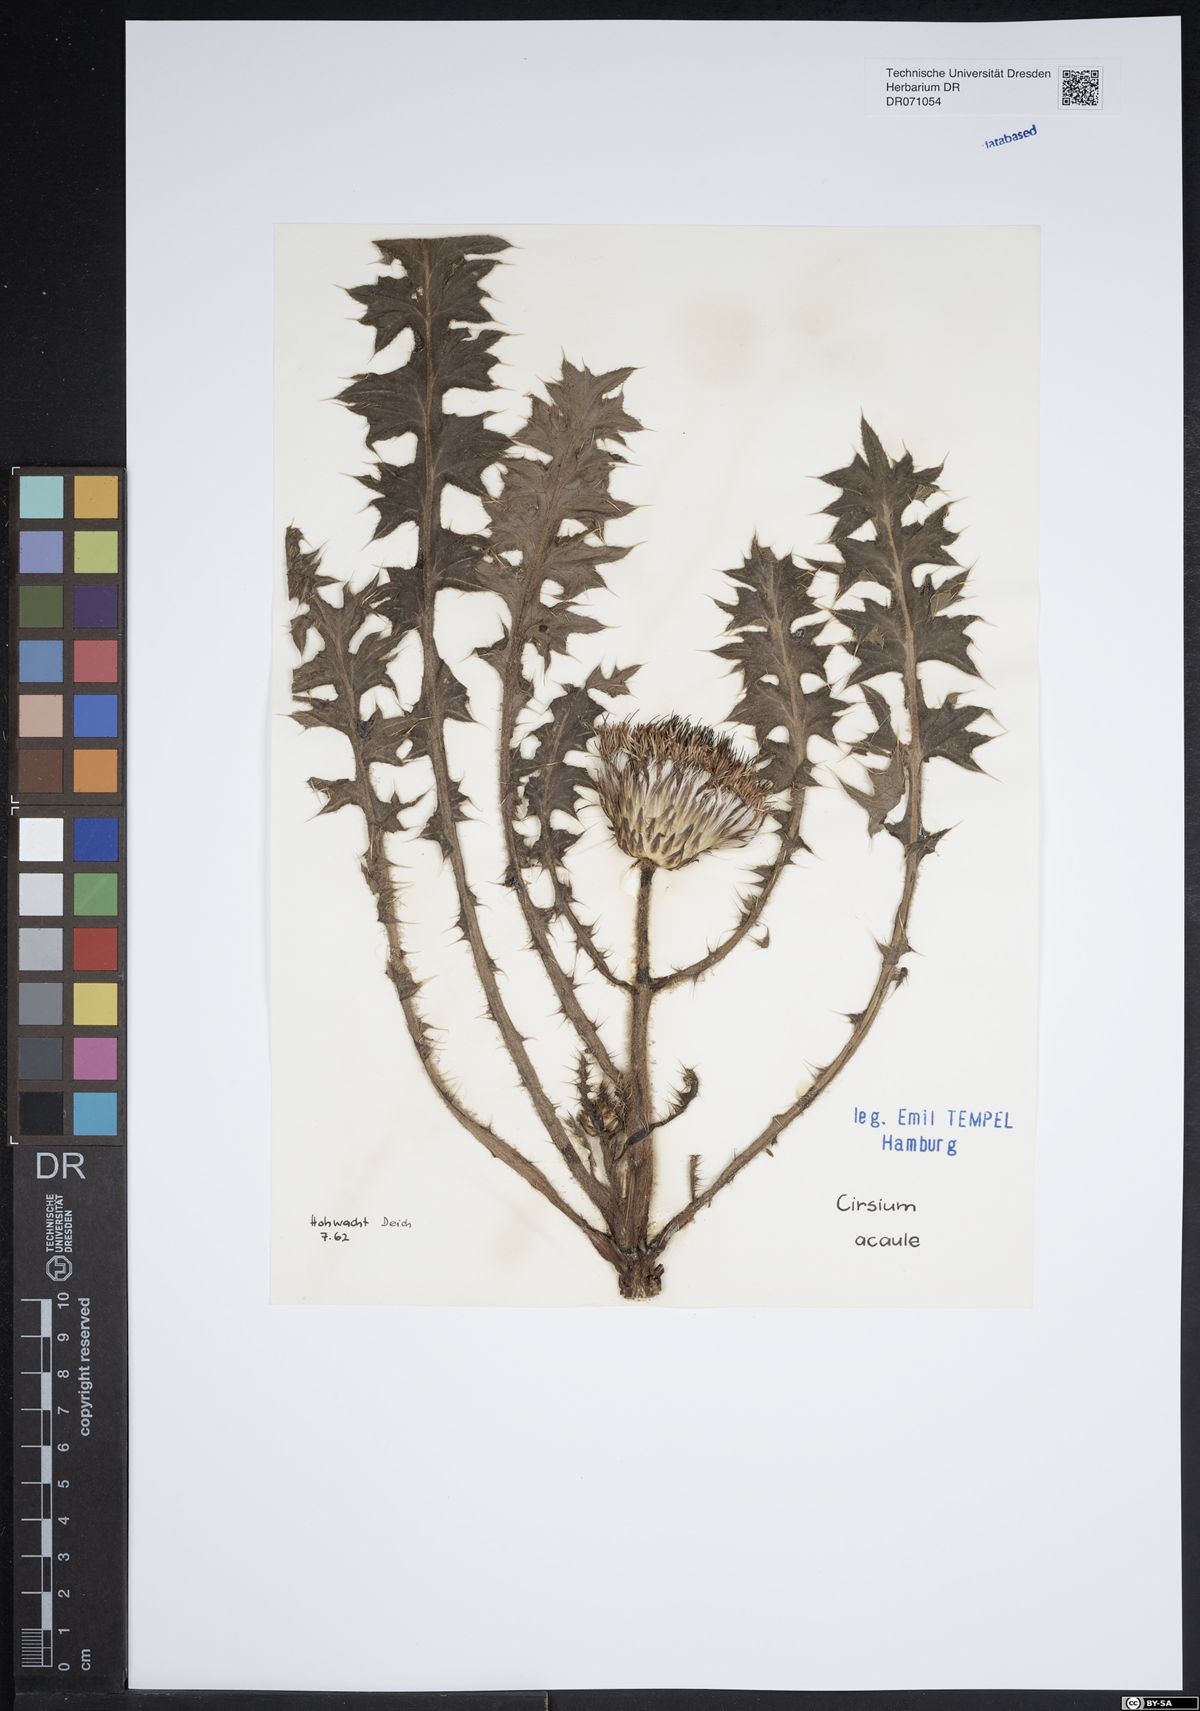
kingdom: Plantae
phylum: Tracheophyta
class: Magnoliopsida
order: Asterales
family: Asteraceae
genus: Cirsium
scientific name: Cirsium acaule
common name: Dwarf thistle
